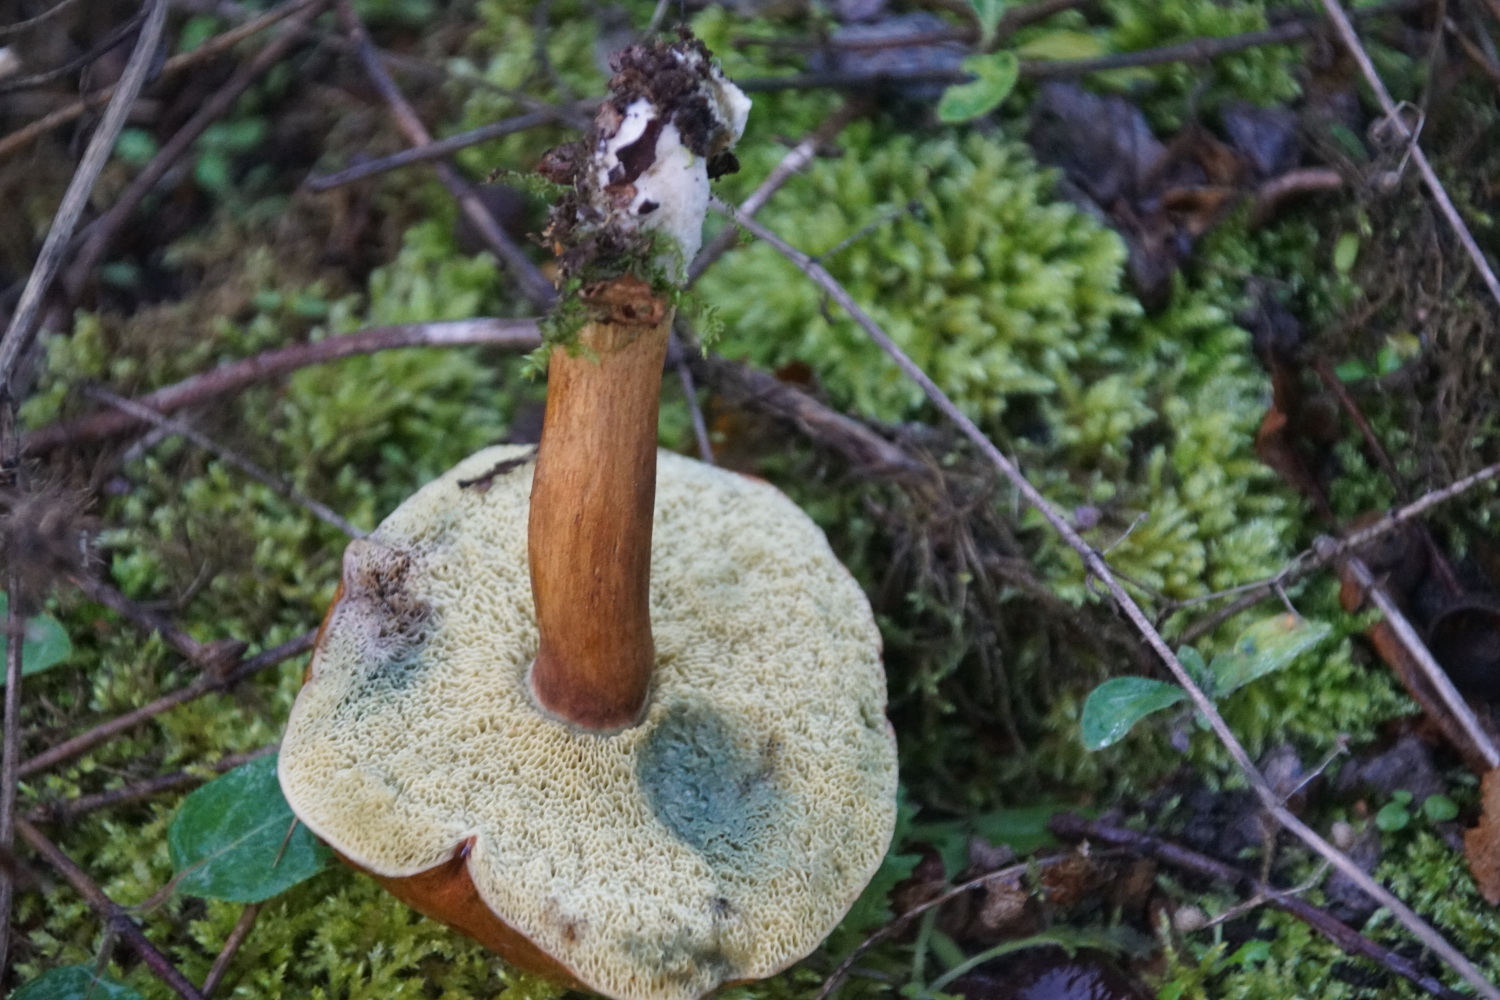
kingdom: Fungi
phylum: Basidiomycota
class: Agaricomycetes
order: Boletales
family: Boletaceae
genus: Imleria
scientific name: Imleria badia
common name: brunstokket rørhat
